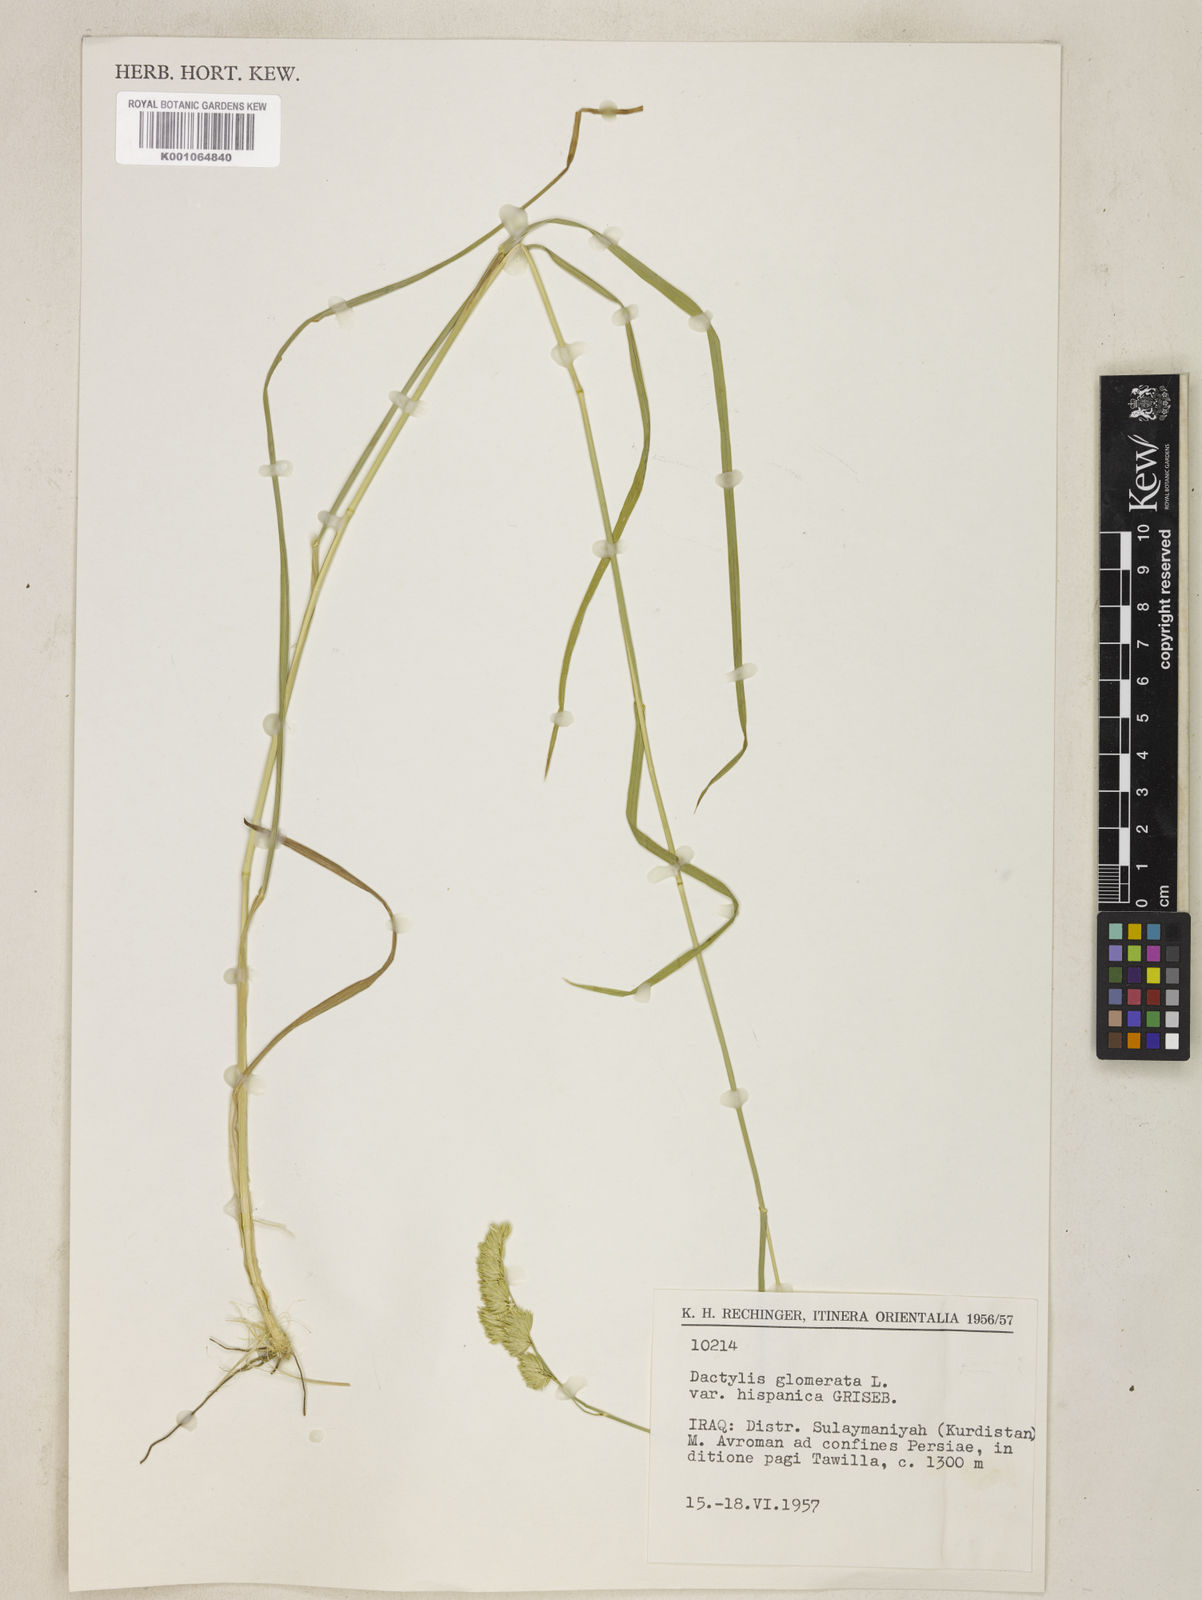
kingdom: Plantae
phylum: Tracheophyta
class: Liliopsida
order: Poales
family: Poaceae
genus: Dactylis
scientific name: Dactylis glomerata
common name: Orchardgrass
